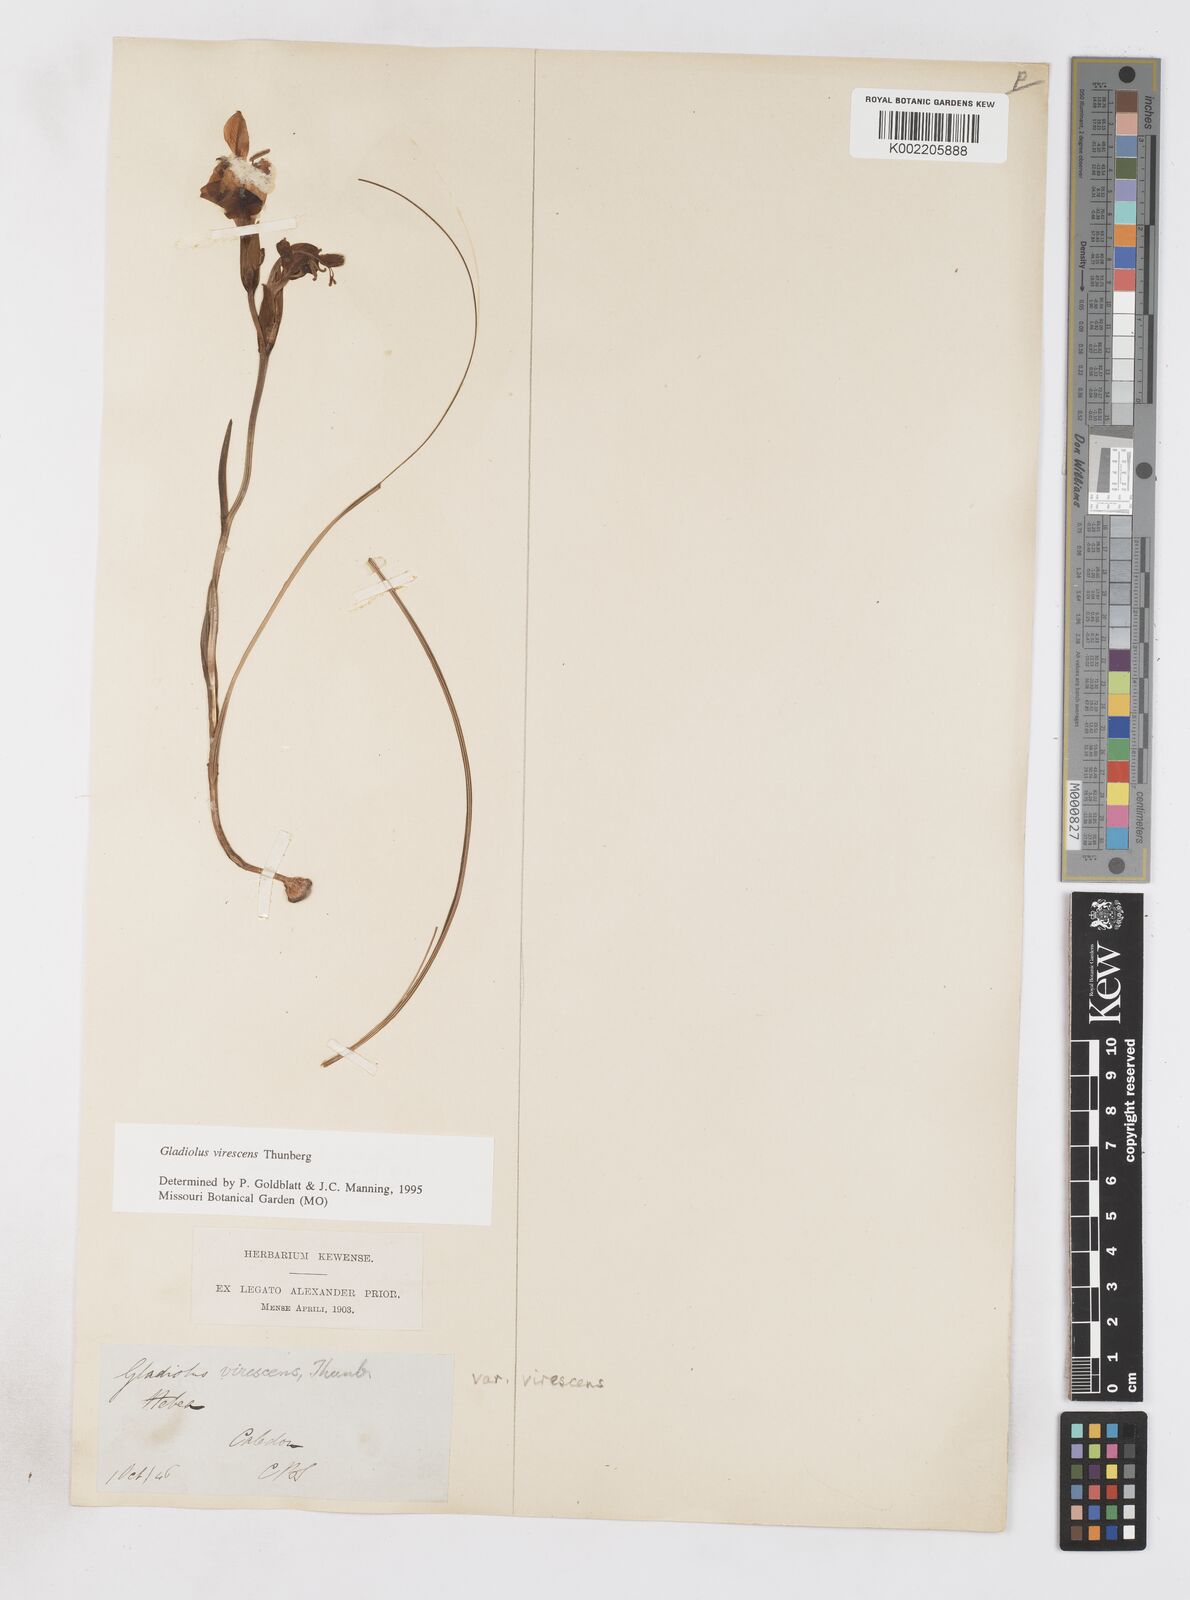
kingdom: Plantae
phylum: Tracheophyta
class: Liliopsida
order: Asparagales
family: Iridaceae
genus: Gladiolus
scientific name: Gladiolus virescens
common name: Yellow kalkoentjie
